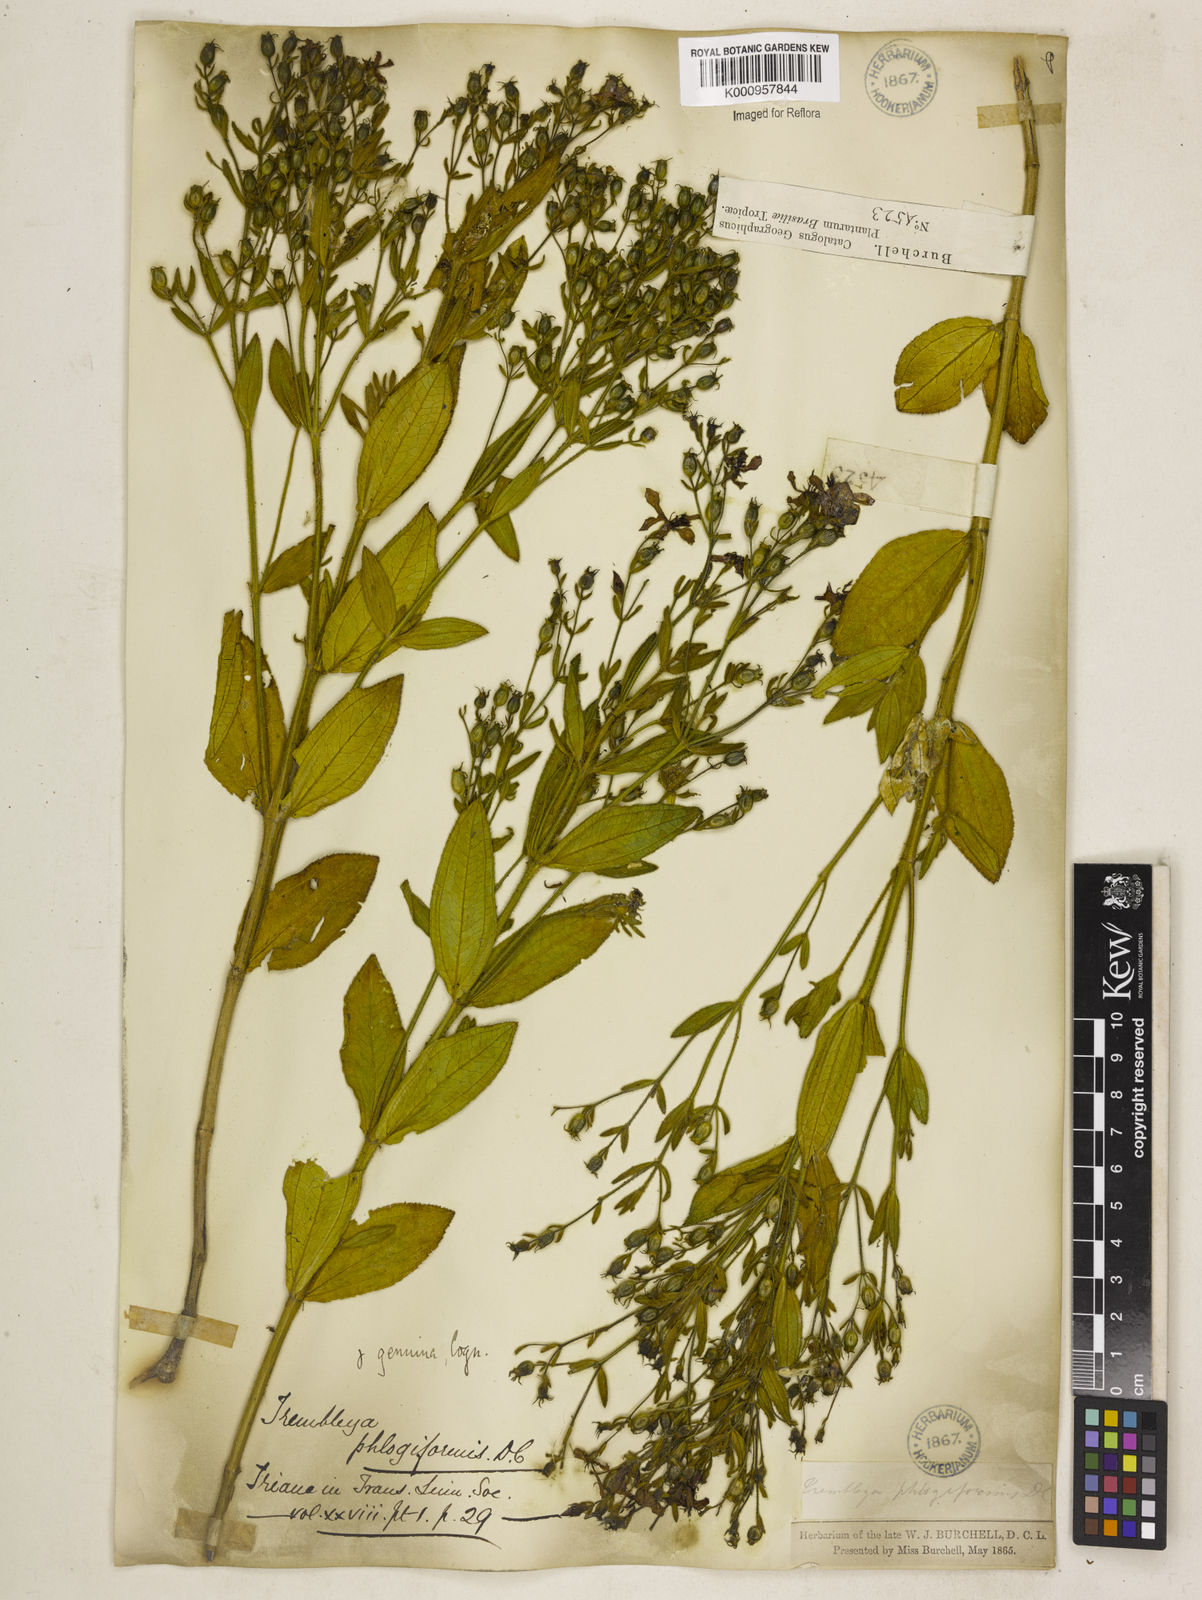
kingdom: Plantae
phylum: Tracheophyta
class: Magnoliopsida
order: Myrtales
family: Melastomataceae
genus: Microlicia
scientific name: Microlicia phlogiformis
